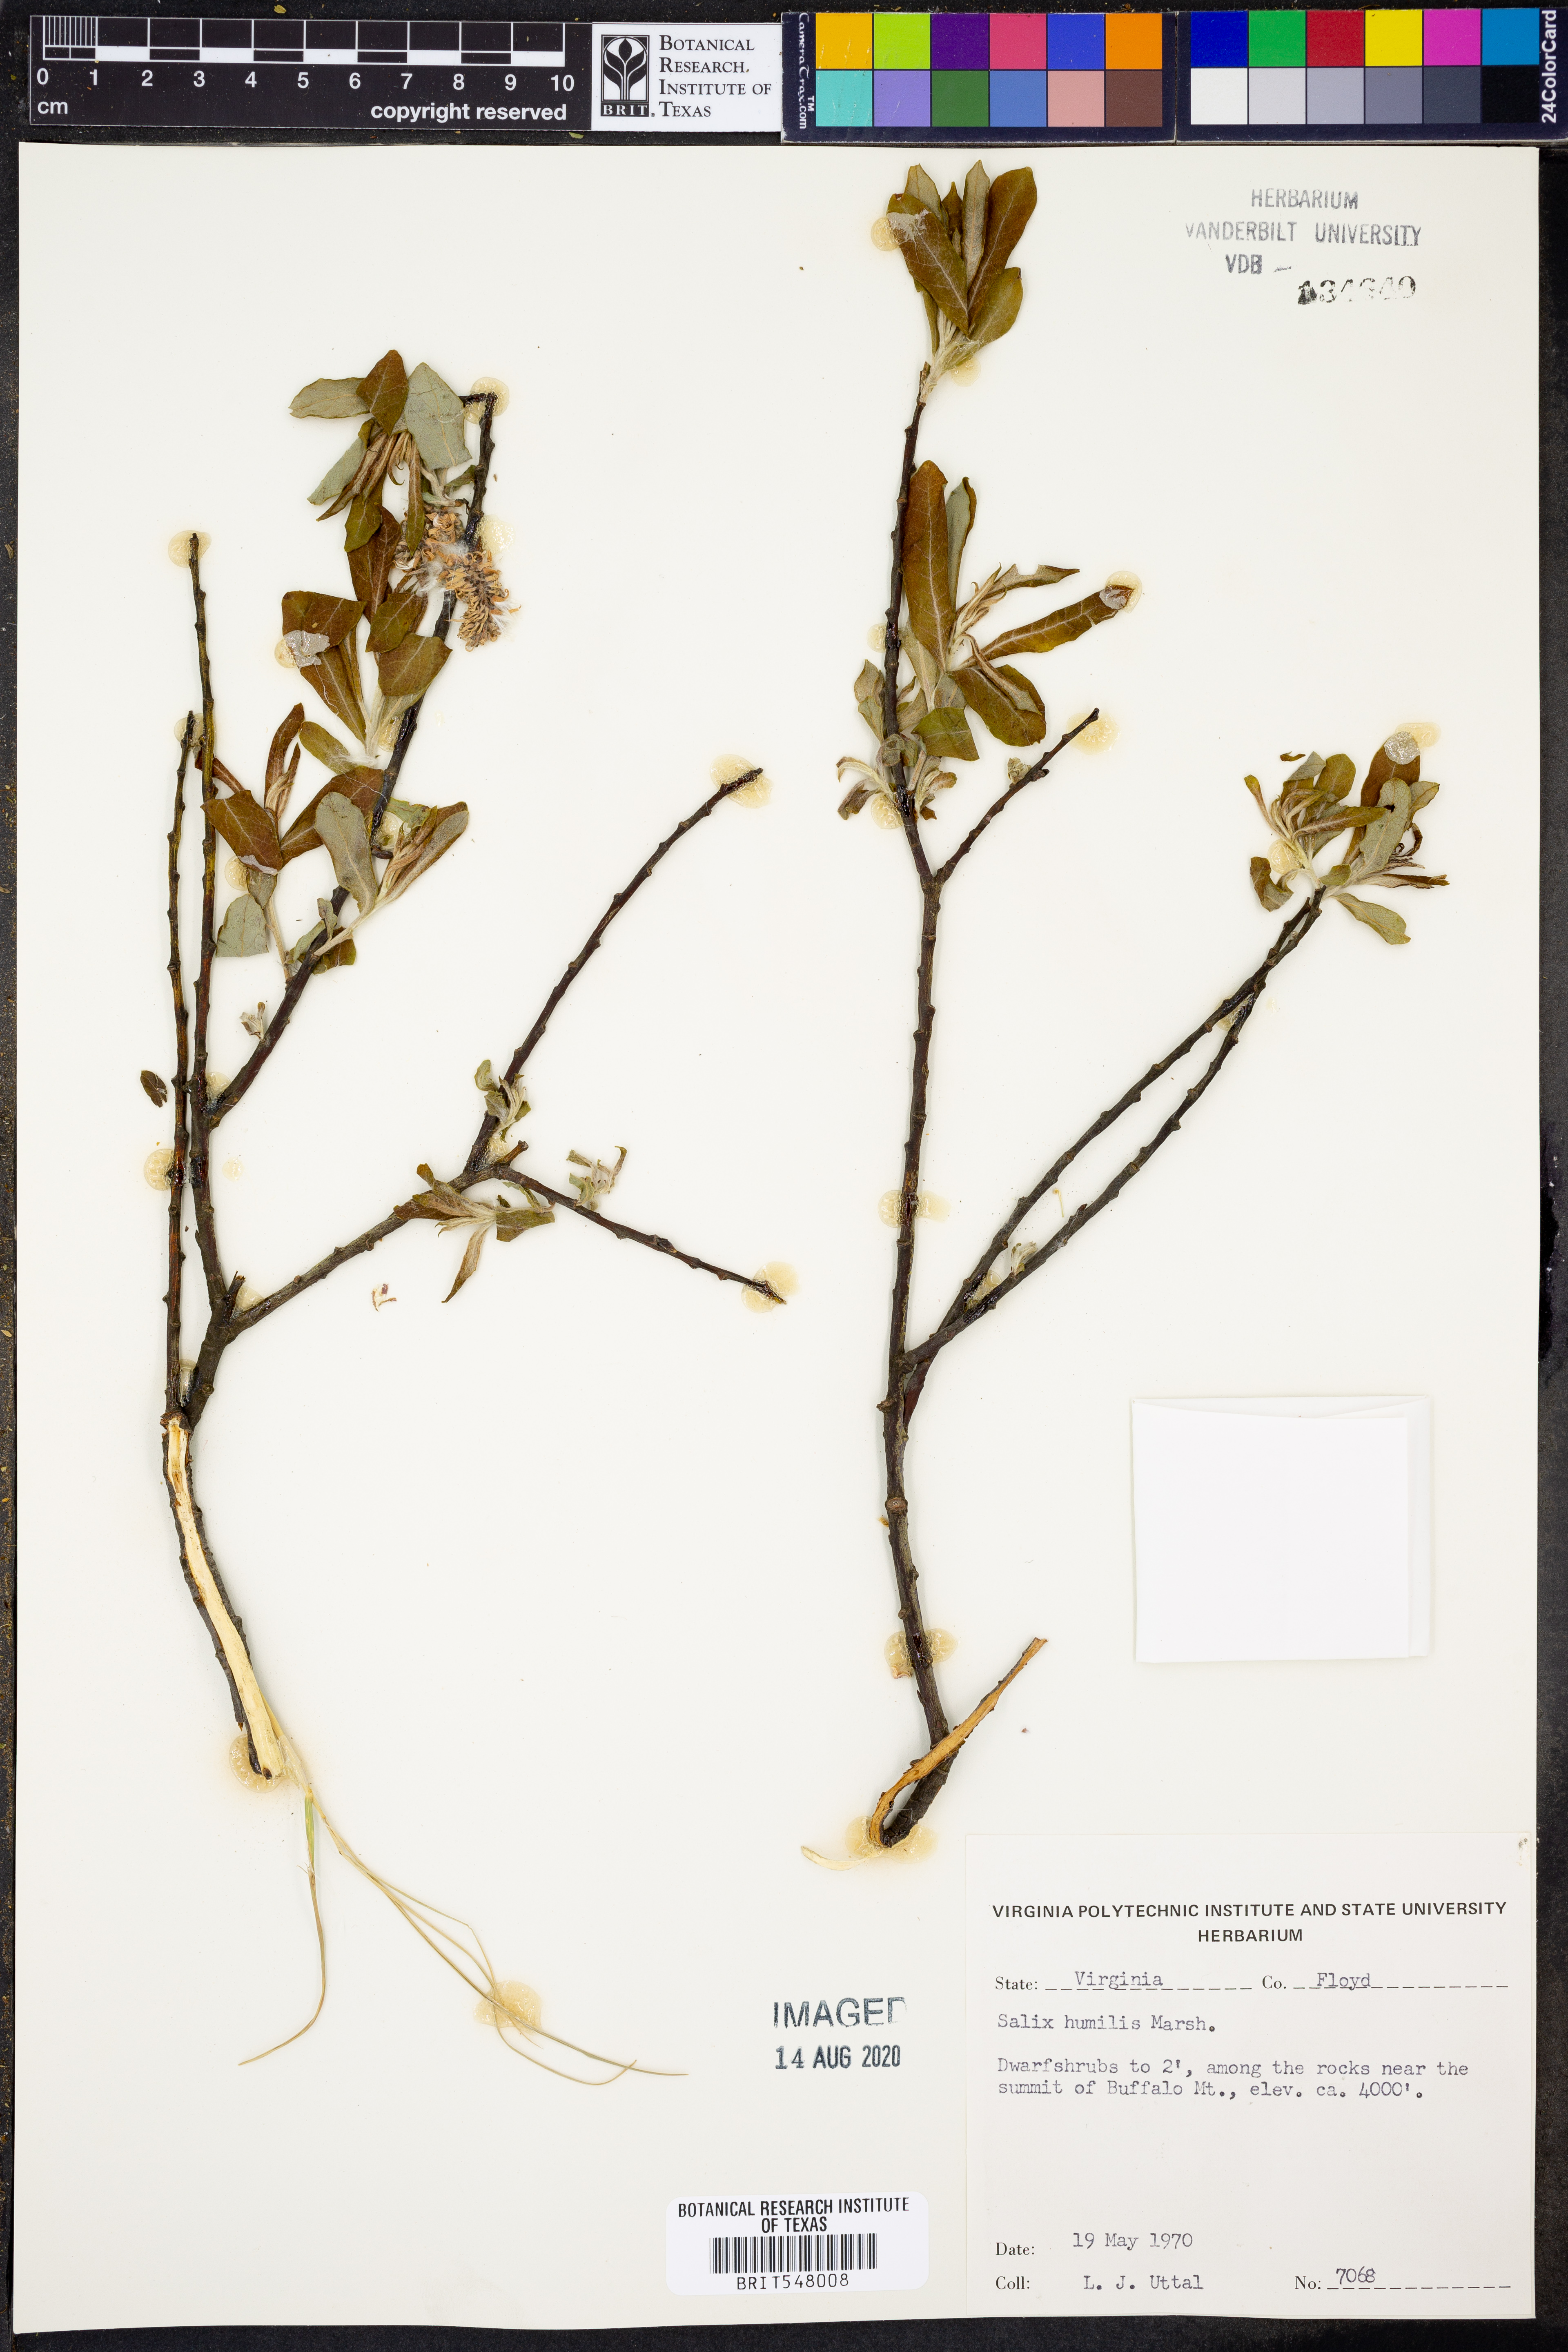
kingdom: Plantae
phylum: Tracheophyta
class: Magnoliopsida
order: Malpighiales
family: Salicaceae
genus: Salix
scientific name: Salix humilis
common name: Prairie willow
